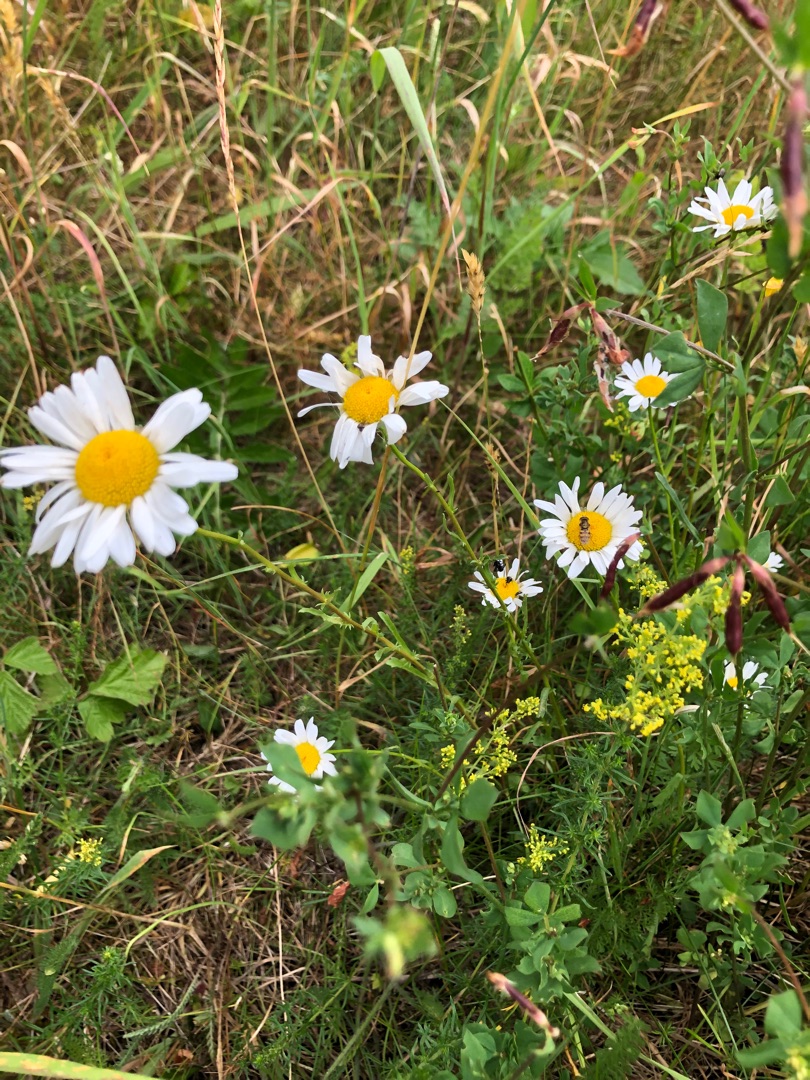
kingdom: Plantae
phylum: Tracheophyta
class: Magnoliopsida
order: Asterales
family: Asteraceae
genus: Leucanthemum
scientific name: Leucanthemum vulgare
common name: Hvid okseøje
